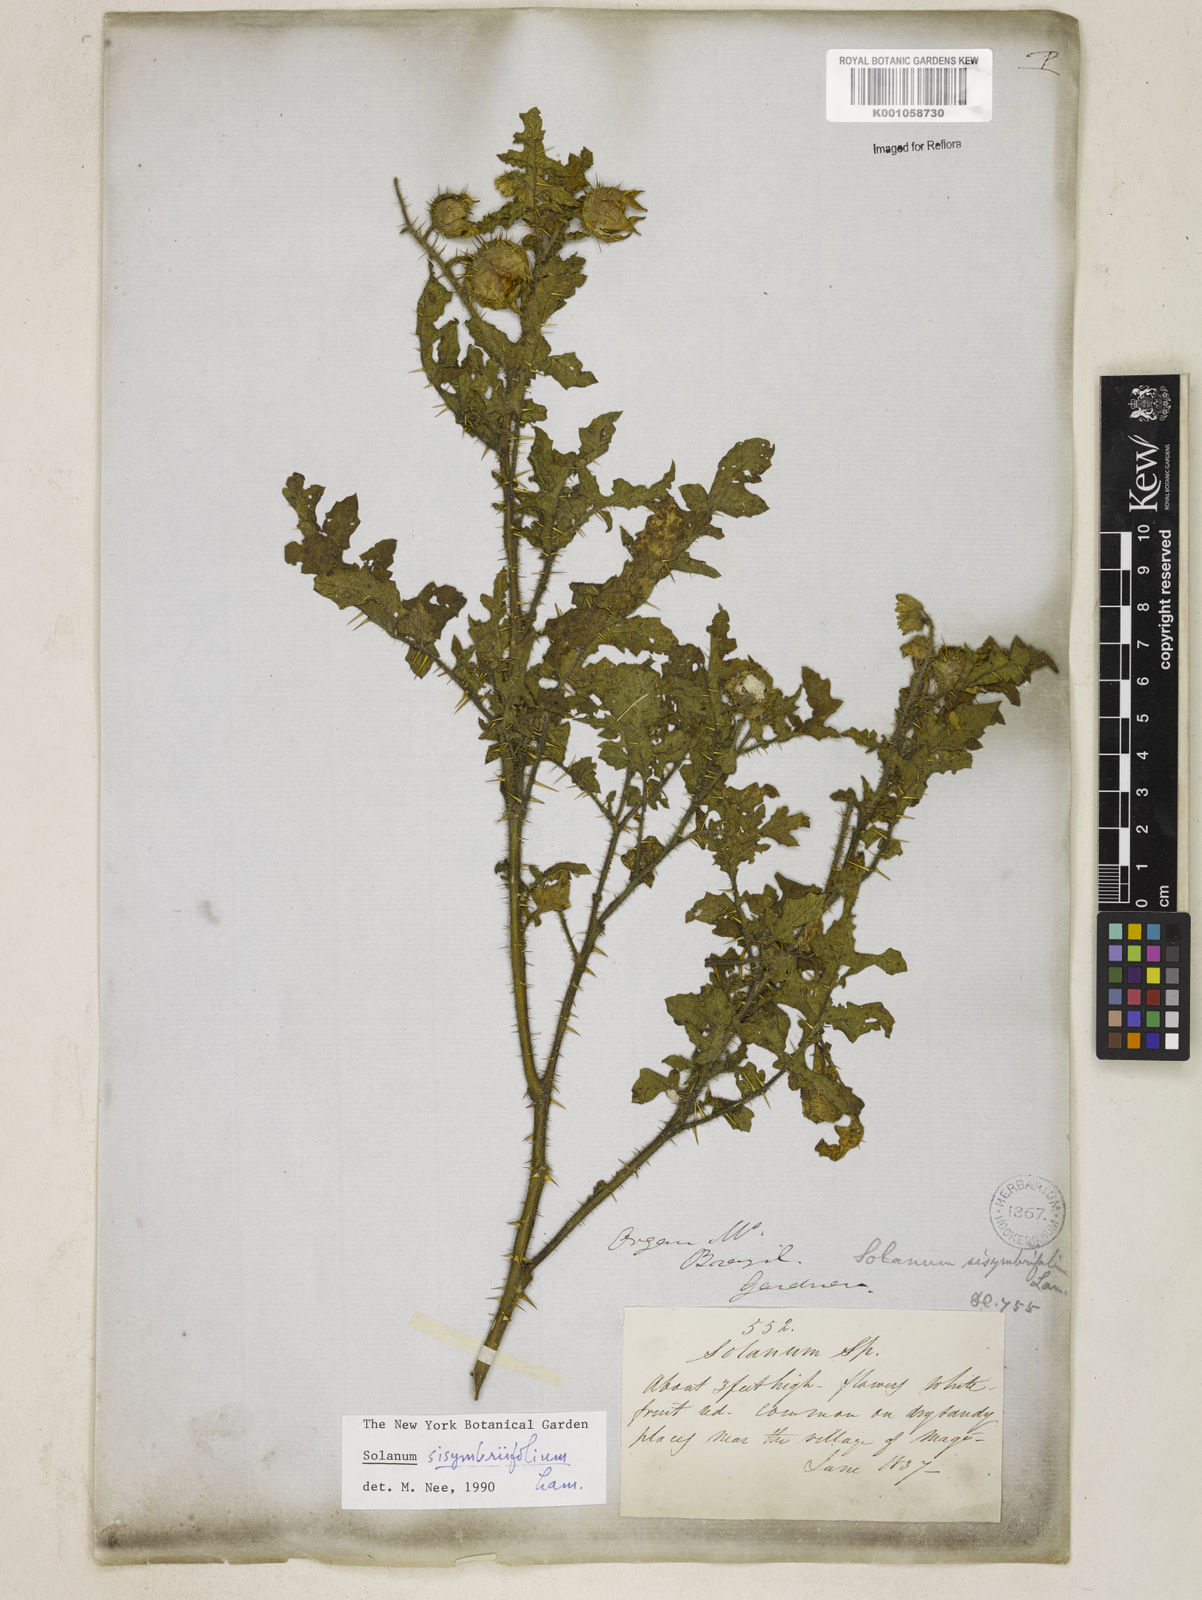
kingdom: Plantae
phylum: Tracheophyta
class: Magnoliopsida
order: Solanales
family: Solanaceae
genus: Solanum
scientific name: Solanum sisymbriifolium
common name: Red buffalo-bur
